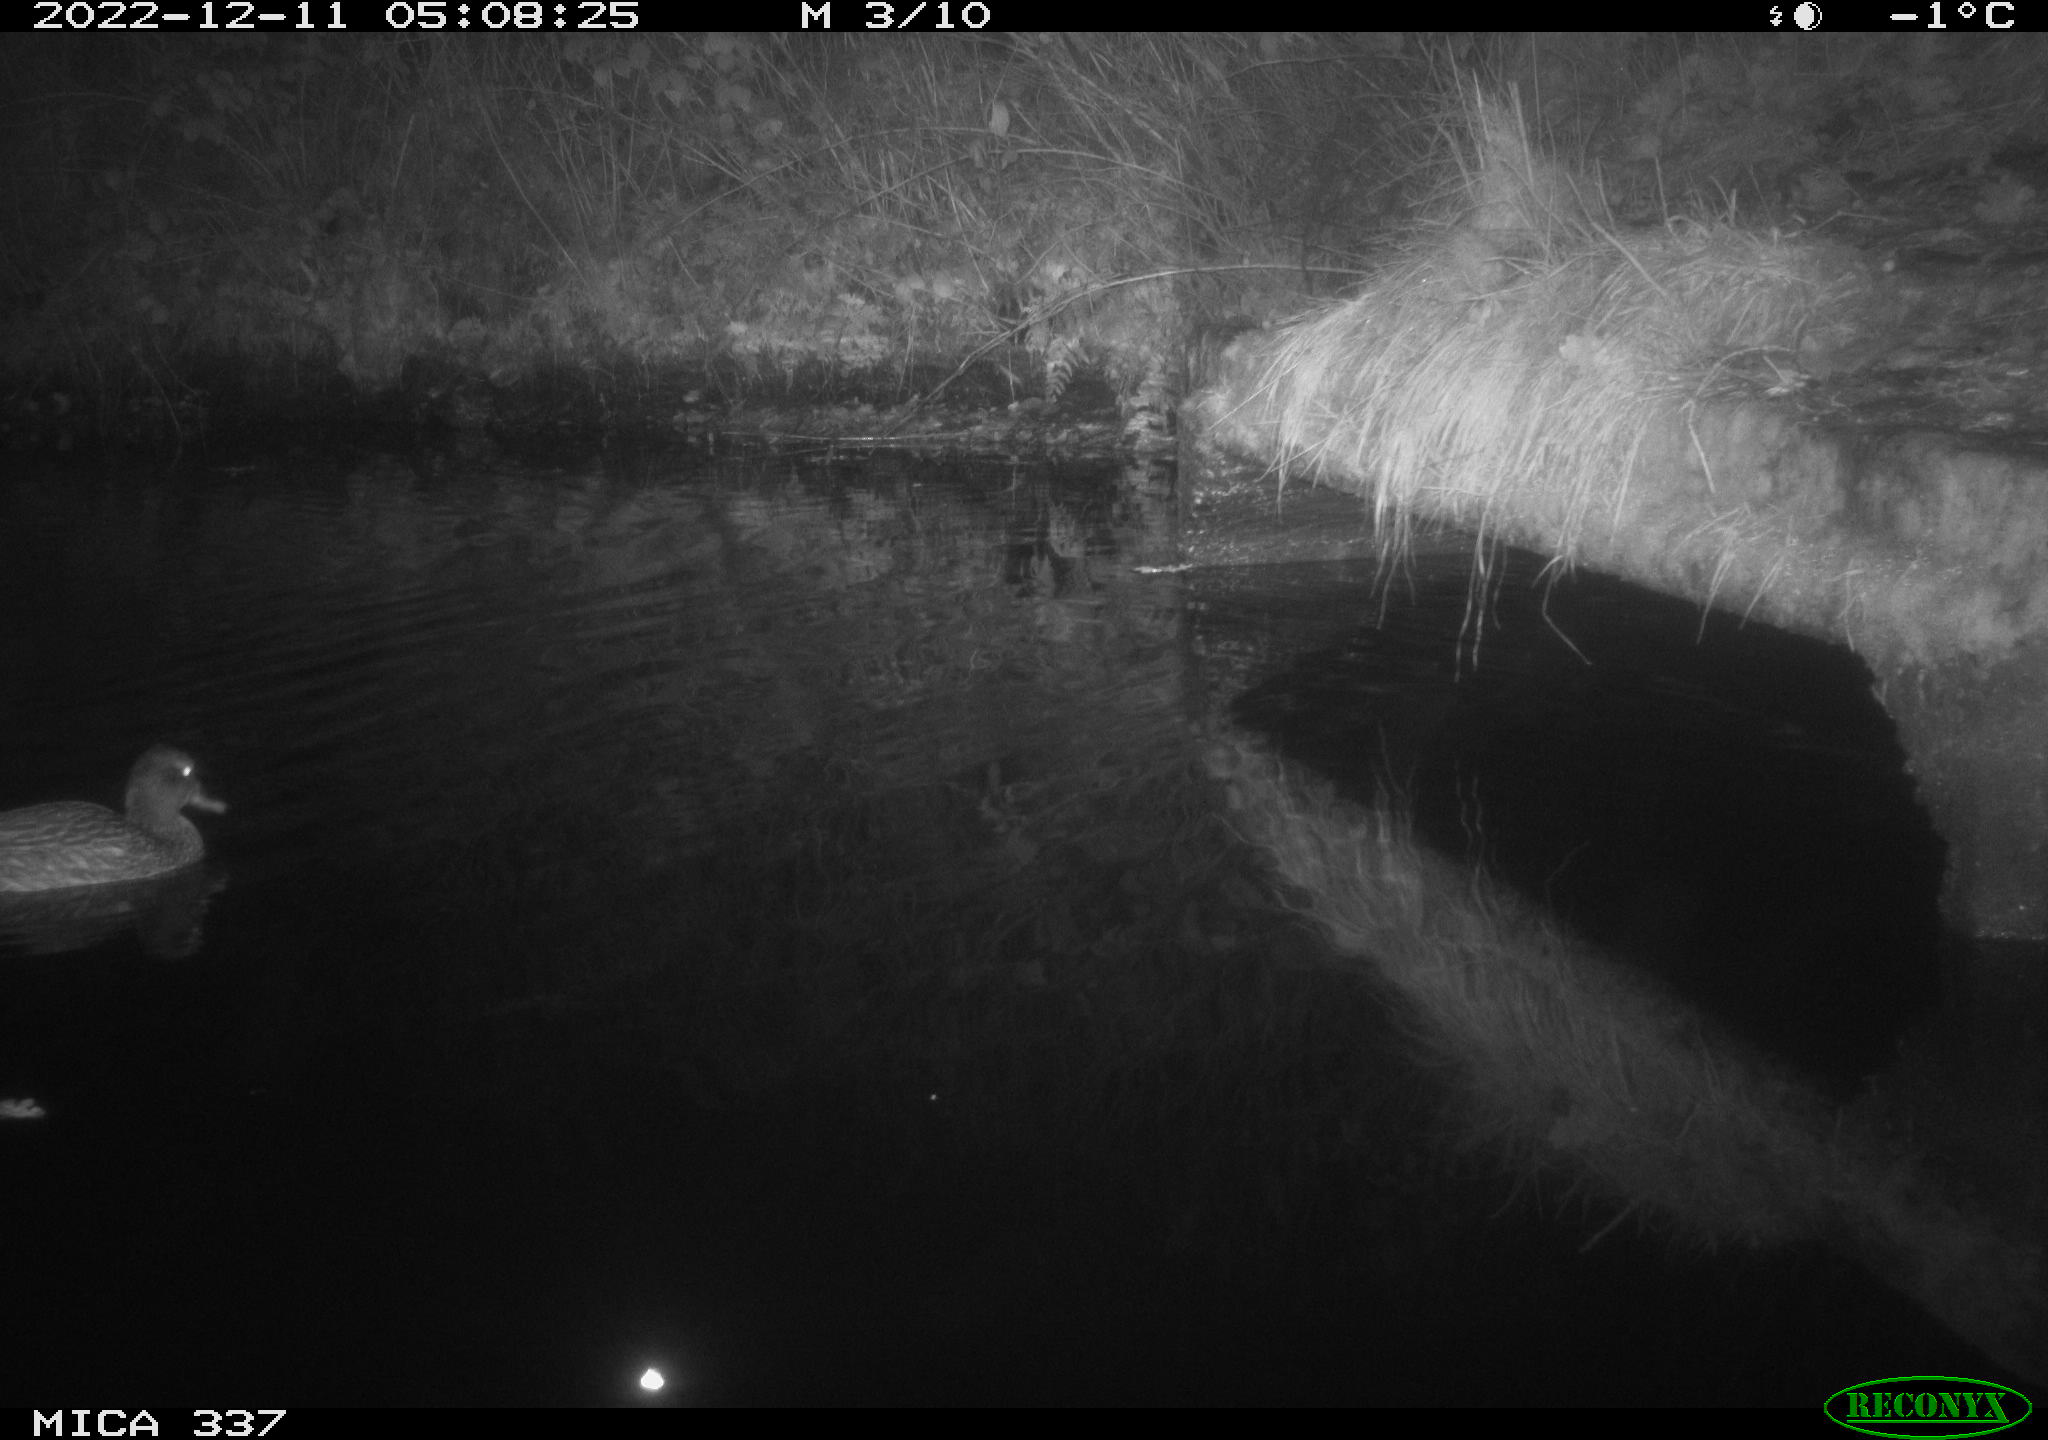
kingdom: Animalia
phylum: Chordata
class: Aves
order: Anseriformes
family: Anatidae
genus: Anas
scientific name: Anas
